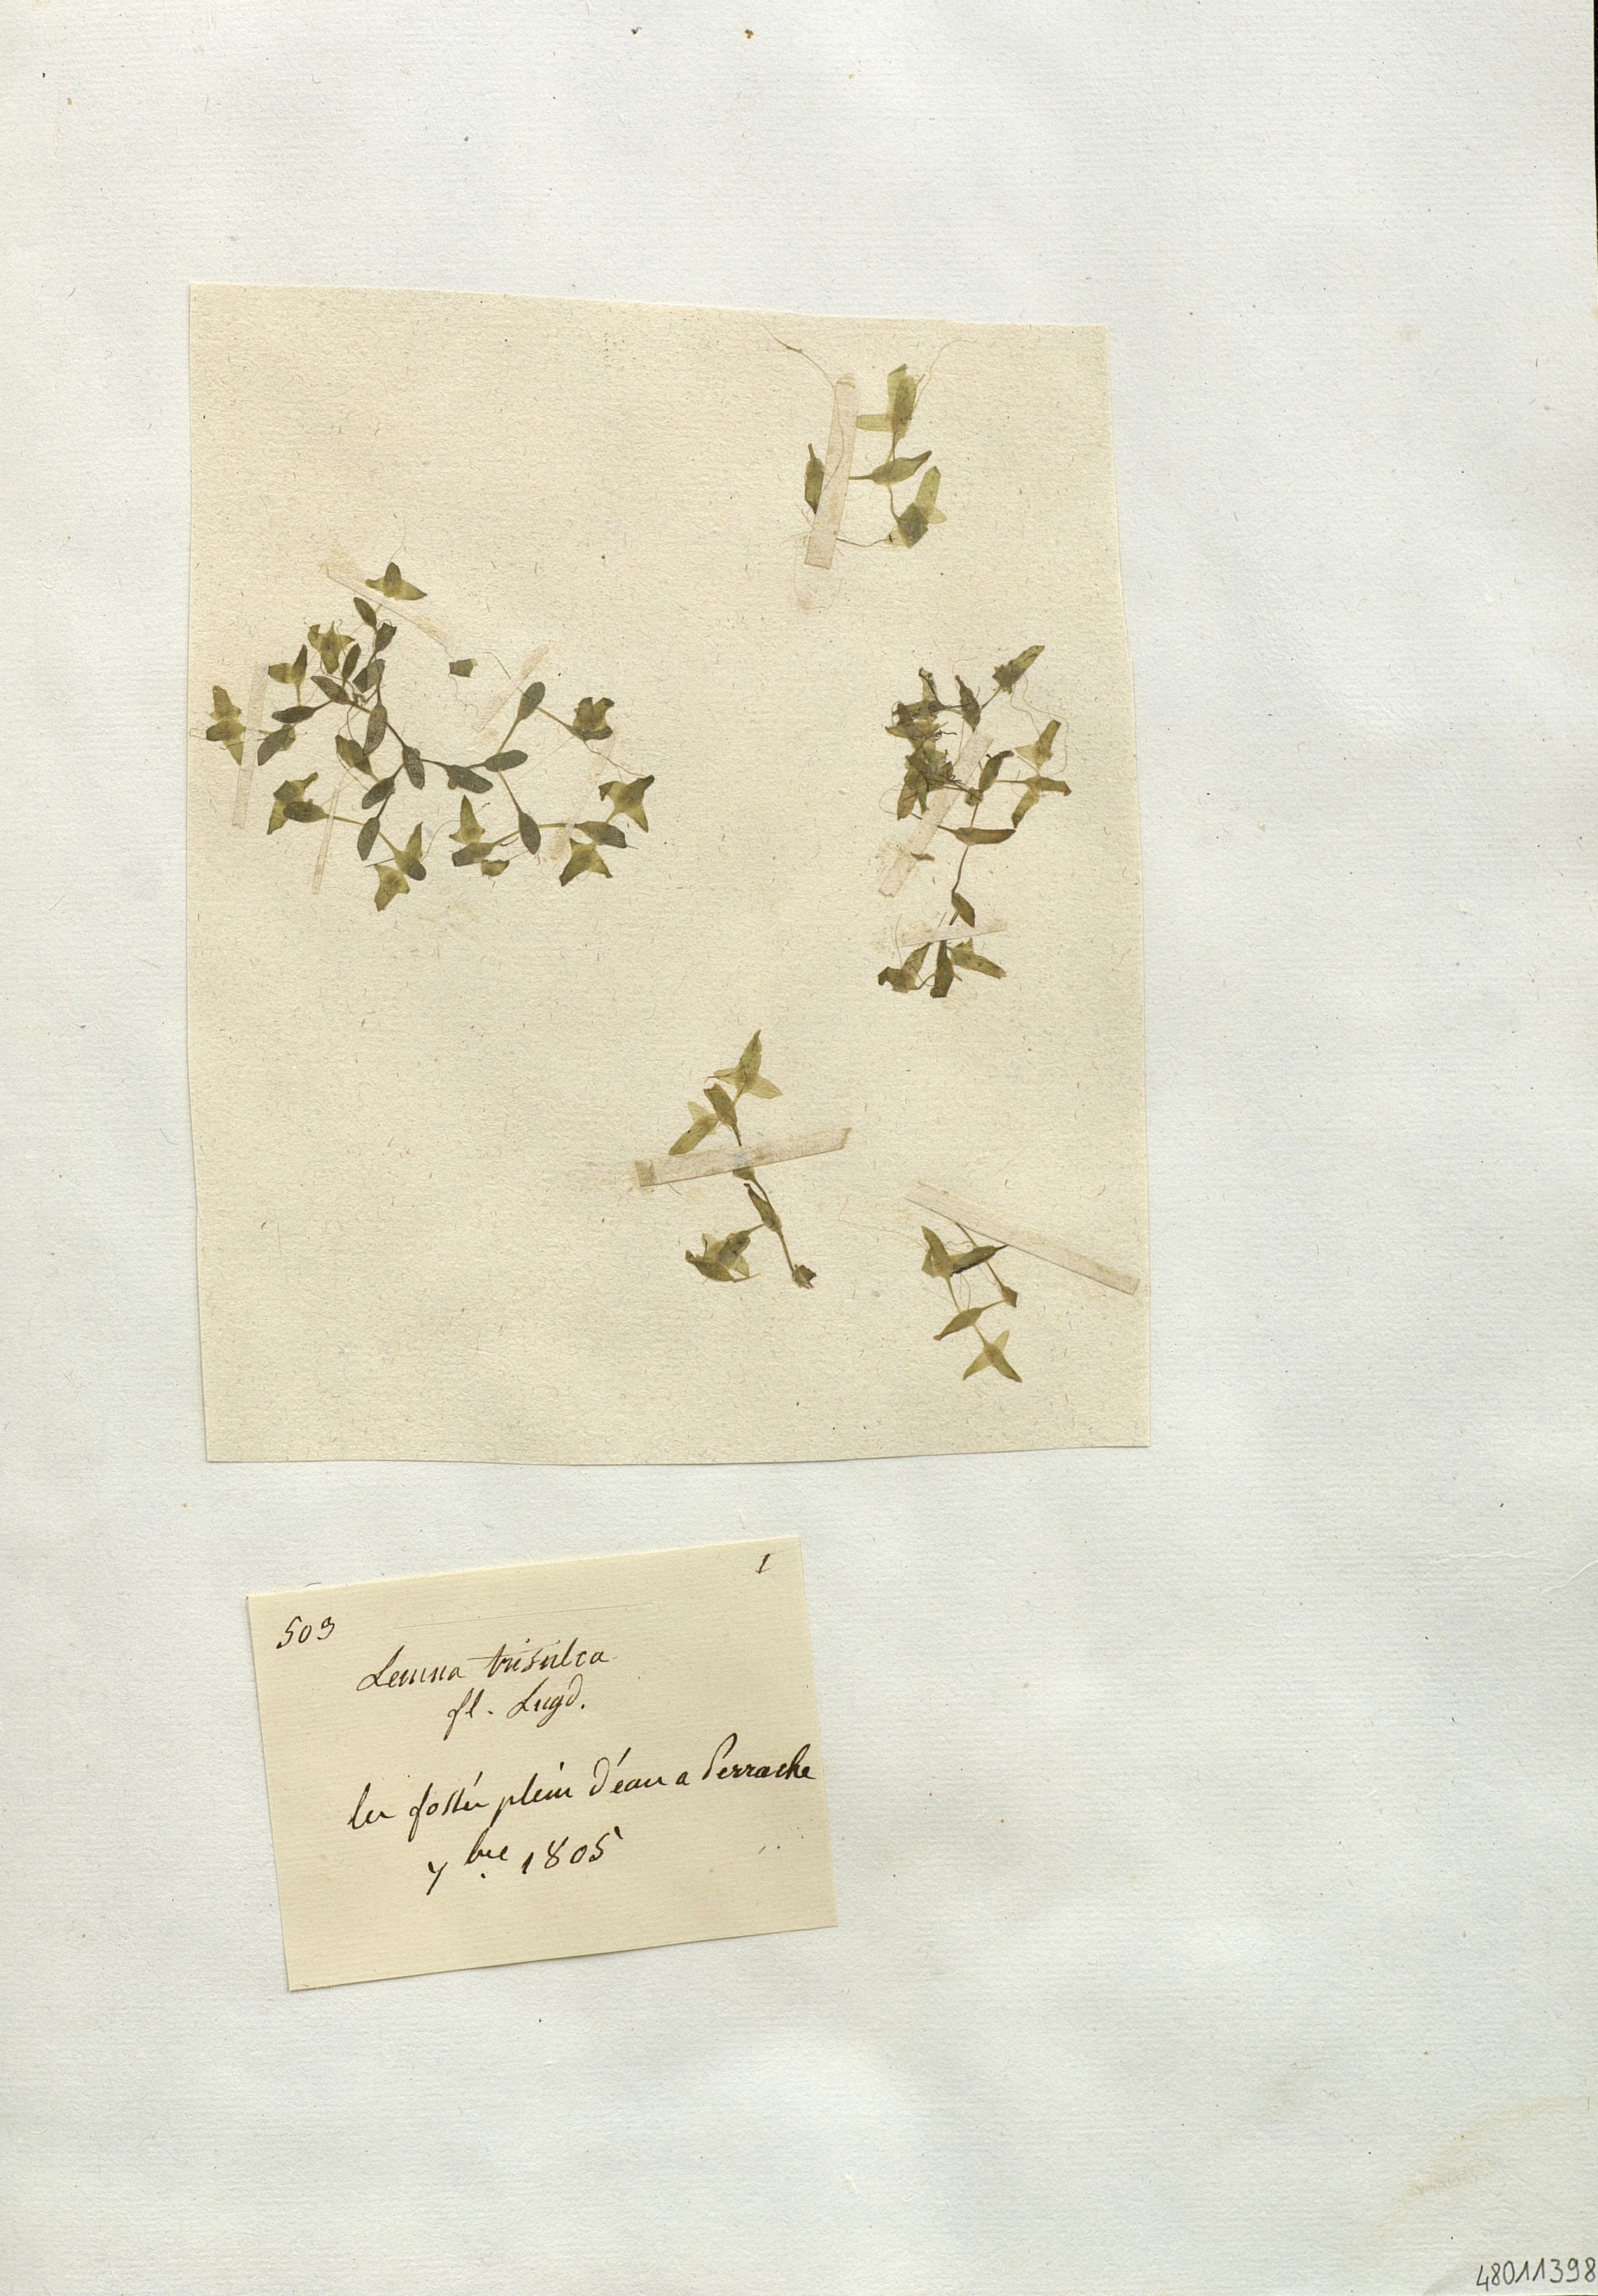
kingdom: Plantae
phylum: Tracheophyta
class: Liliopsida
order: Alismatales
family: Araceae
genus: Lemna
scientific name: Lemna trisulca
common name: Ivy-leaved duckweed
